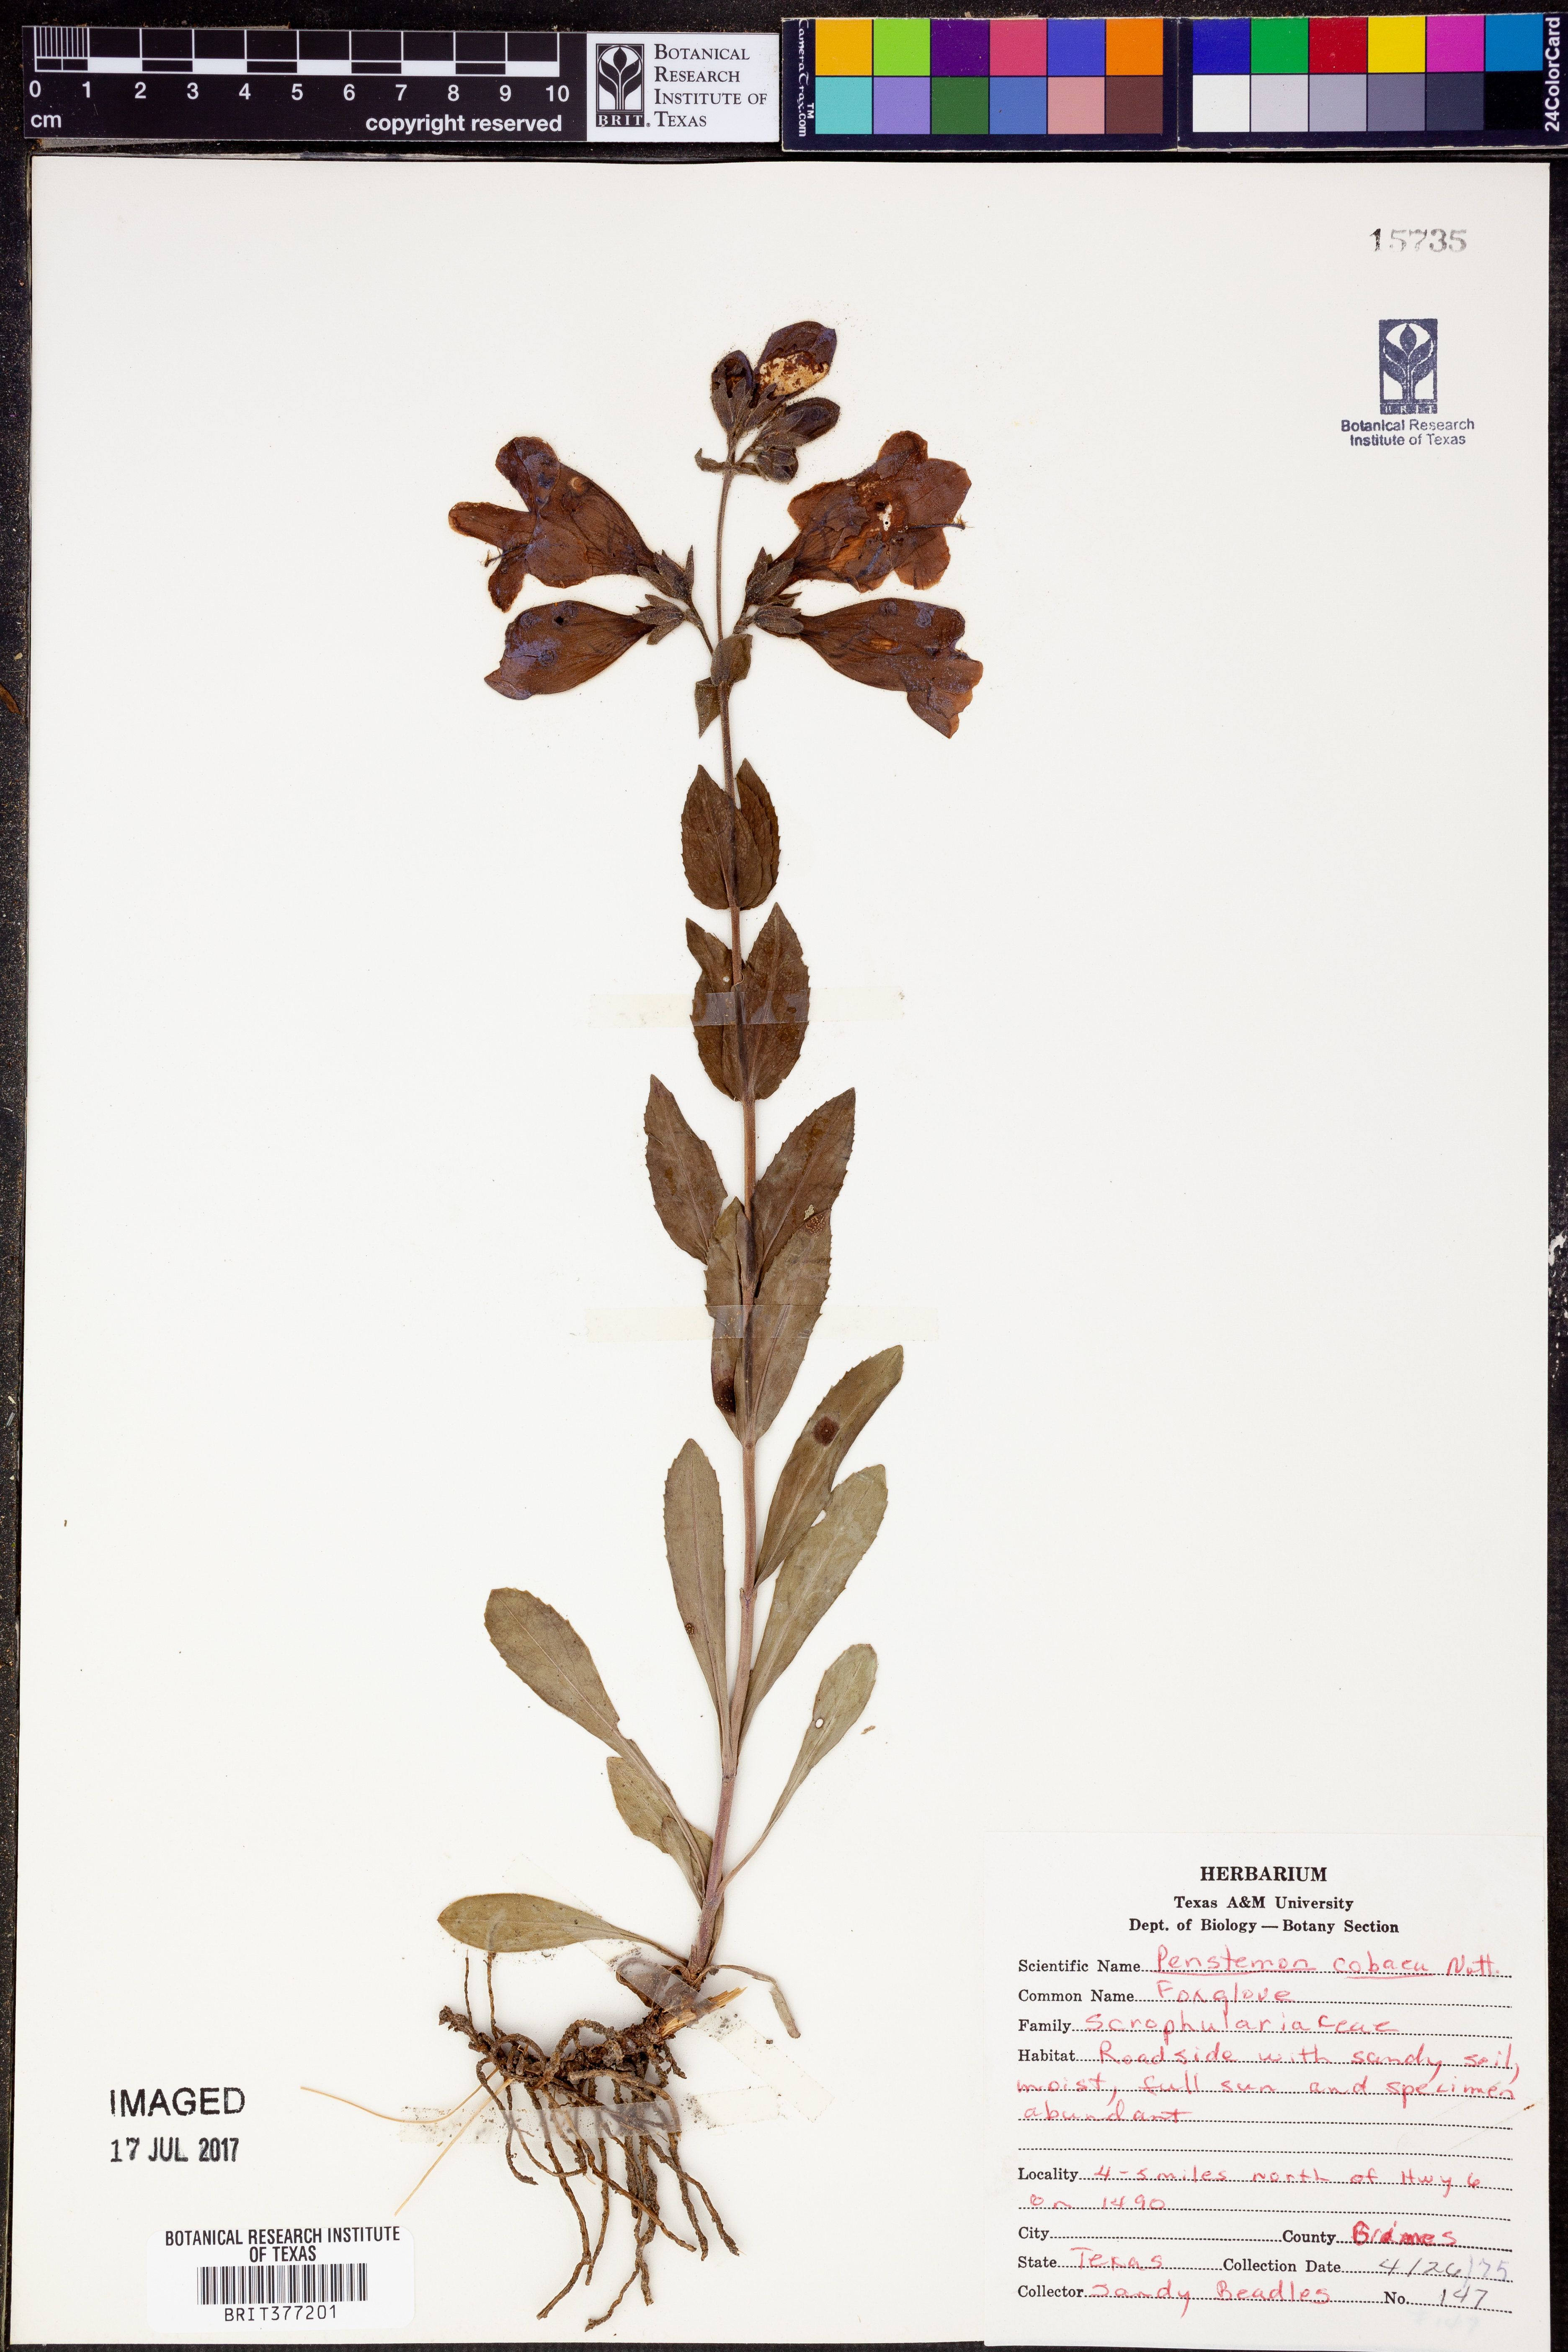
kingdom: Plantae
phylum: Tracheophyta
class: Magnoliopsida
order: Lamiales
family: Plantaginaceae
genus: Penstemon
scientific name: Penstemon cobaea
